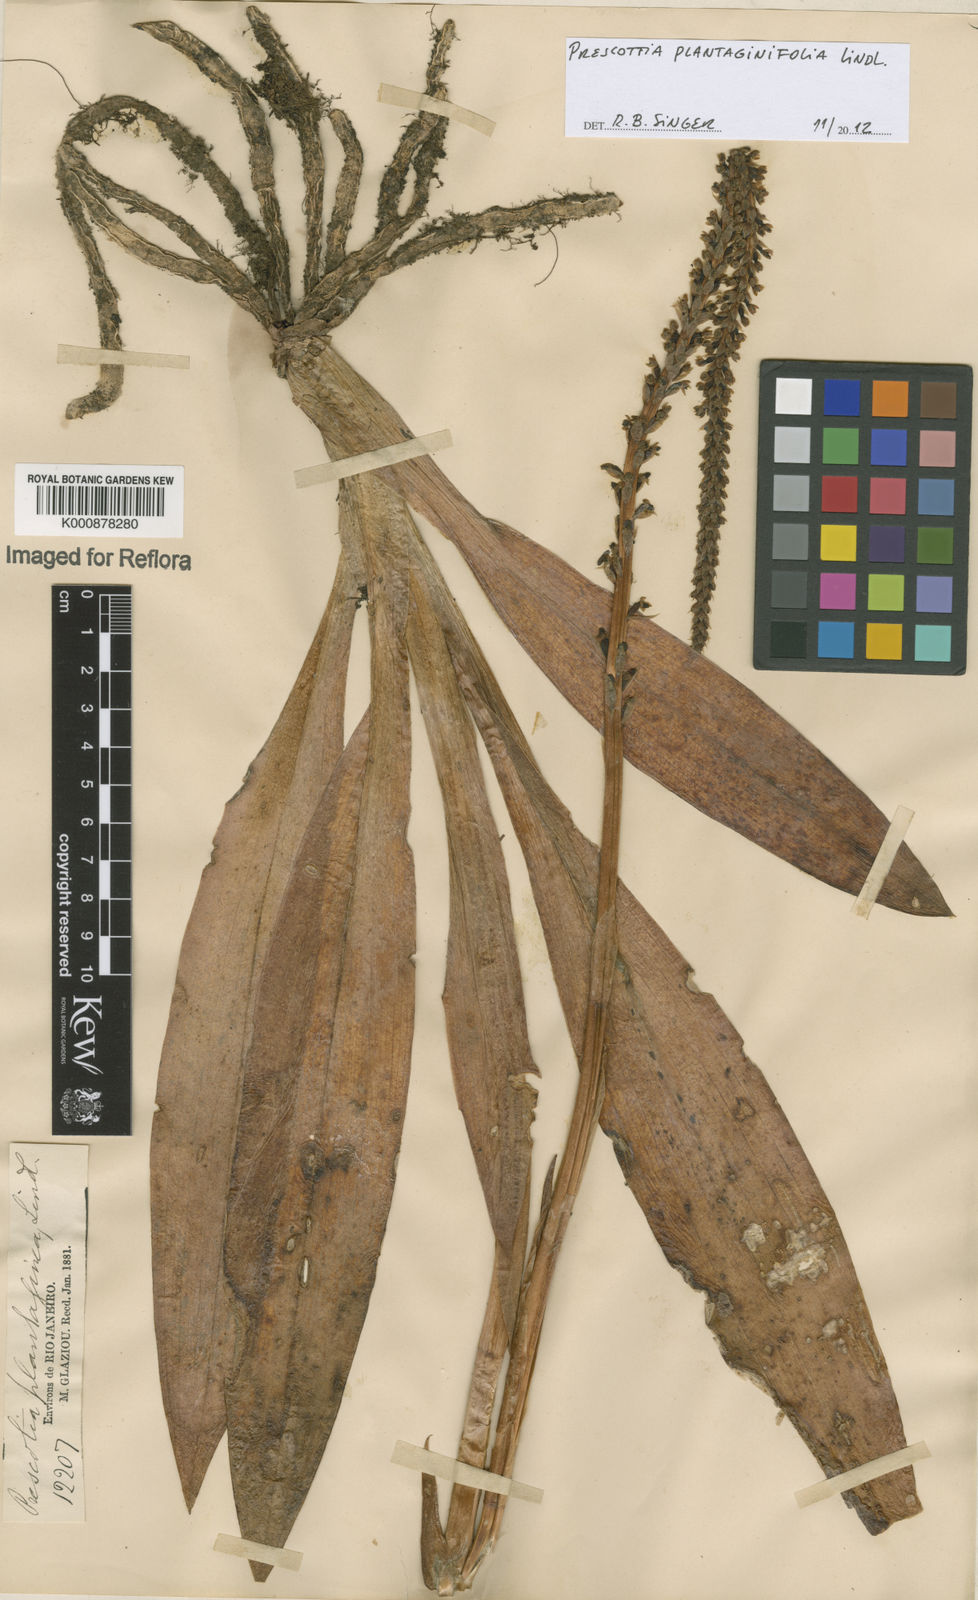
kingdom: Plantae
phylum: Tracheophyta
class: Liliopsida
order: Asparagales
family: Orchidaceae
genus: Prescottia
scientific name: Prescottia plantaginifolia
